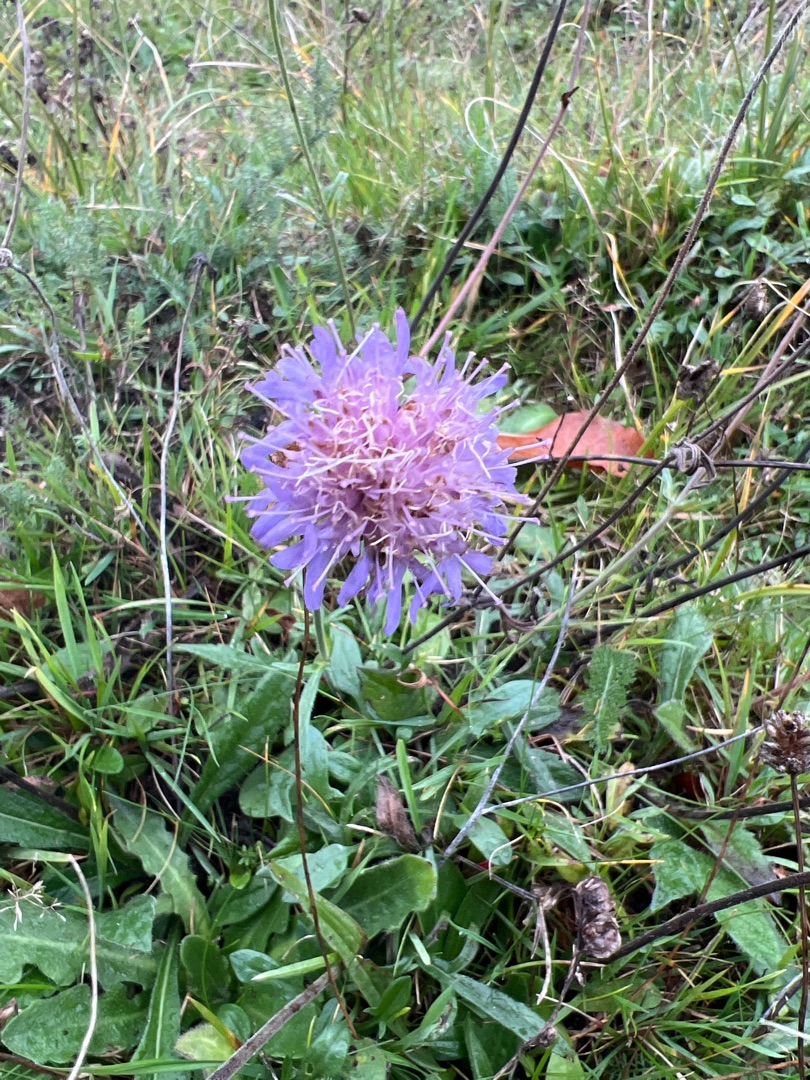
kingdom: Plantae
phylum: Tracheophyta
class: Magnoliopsida
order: Dipsacales
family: Caprifoliaceae
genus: Knautia
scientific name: Knautia arvensis
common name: Blåhat
